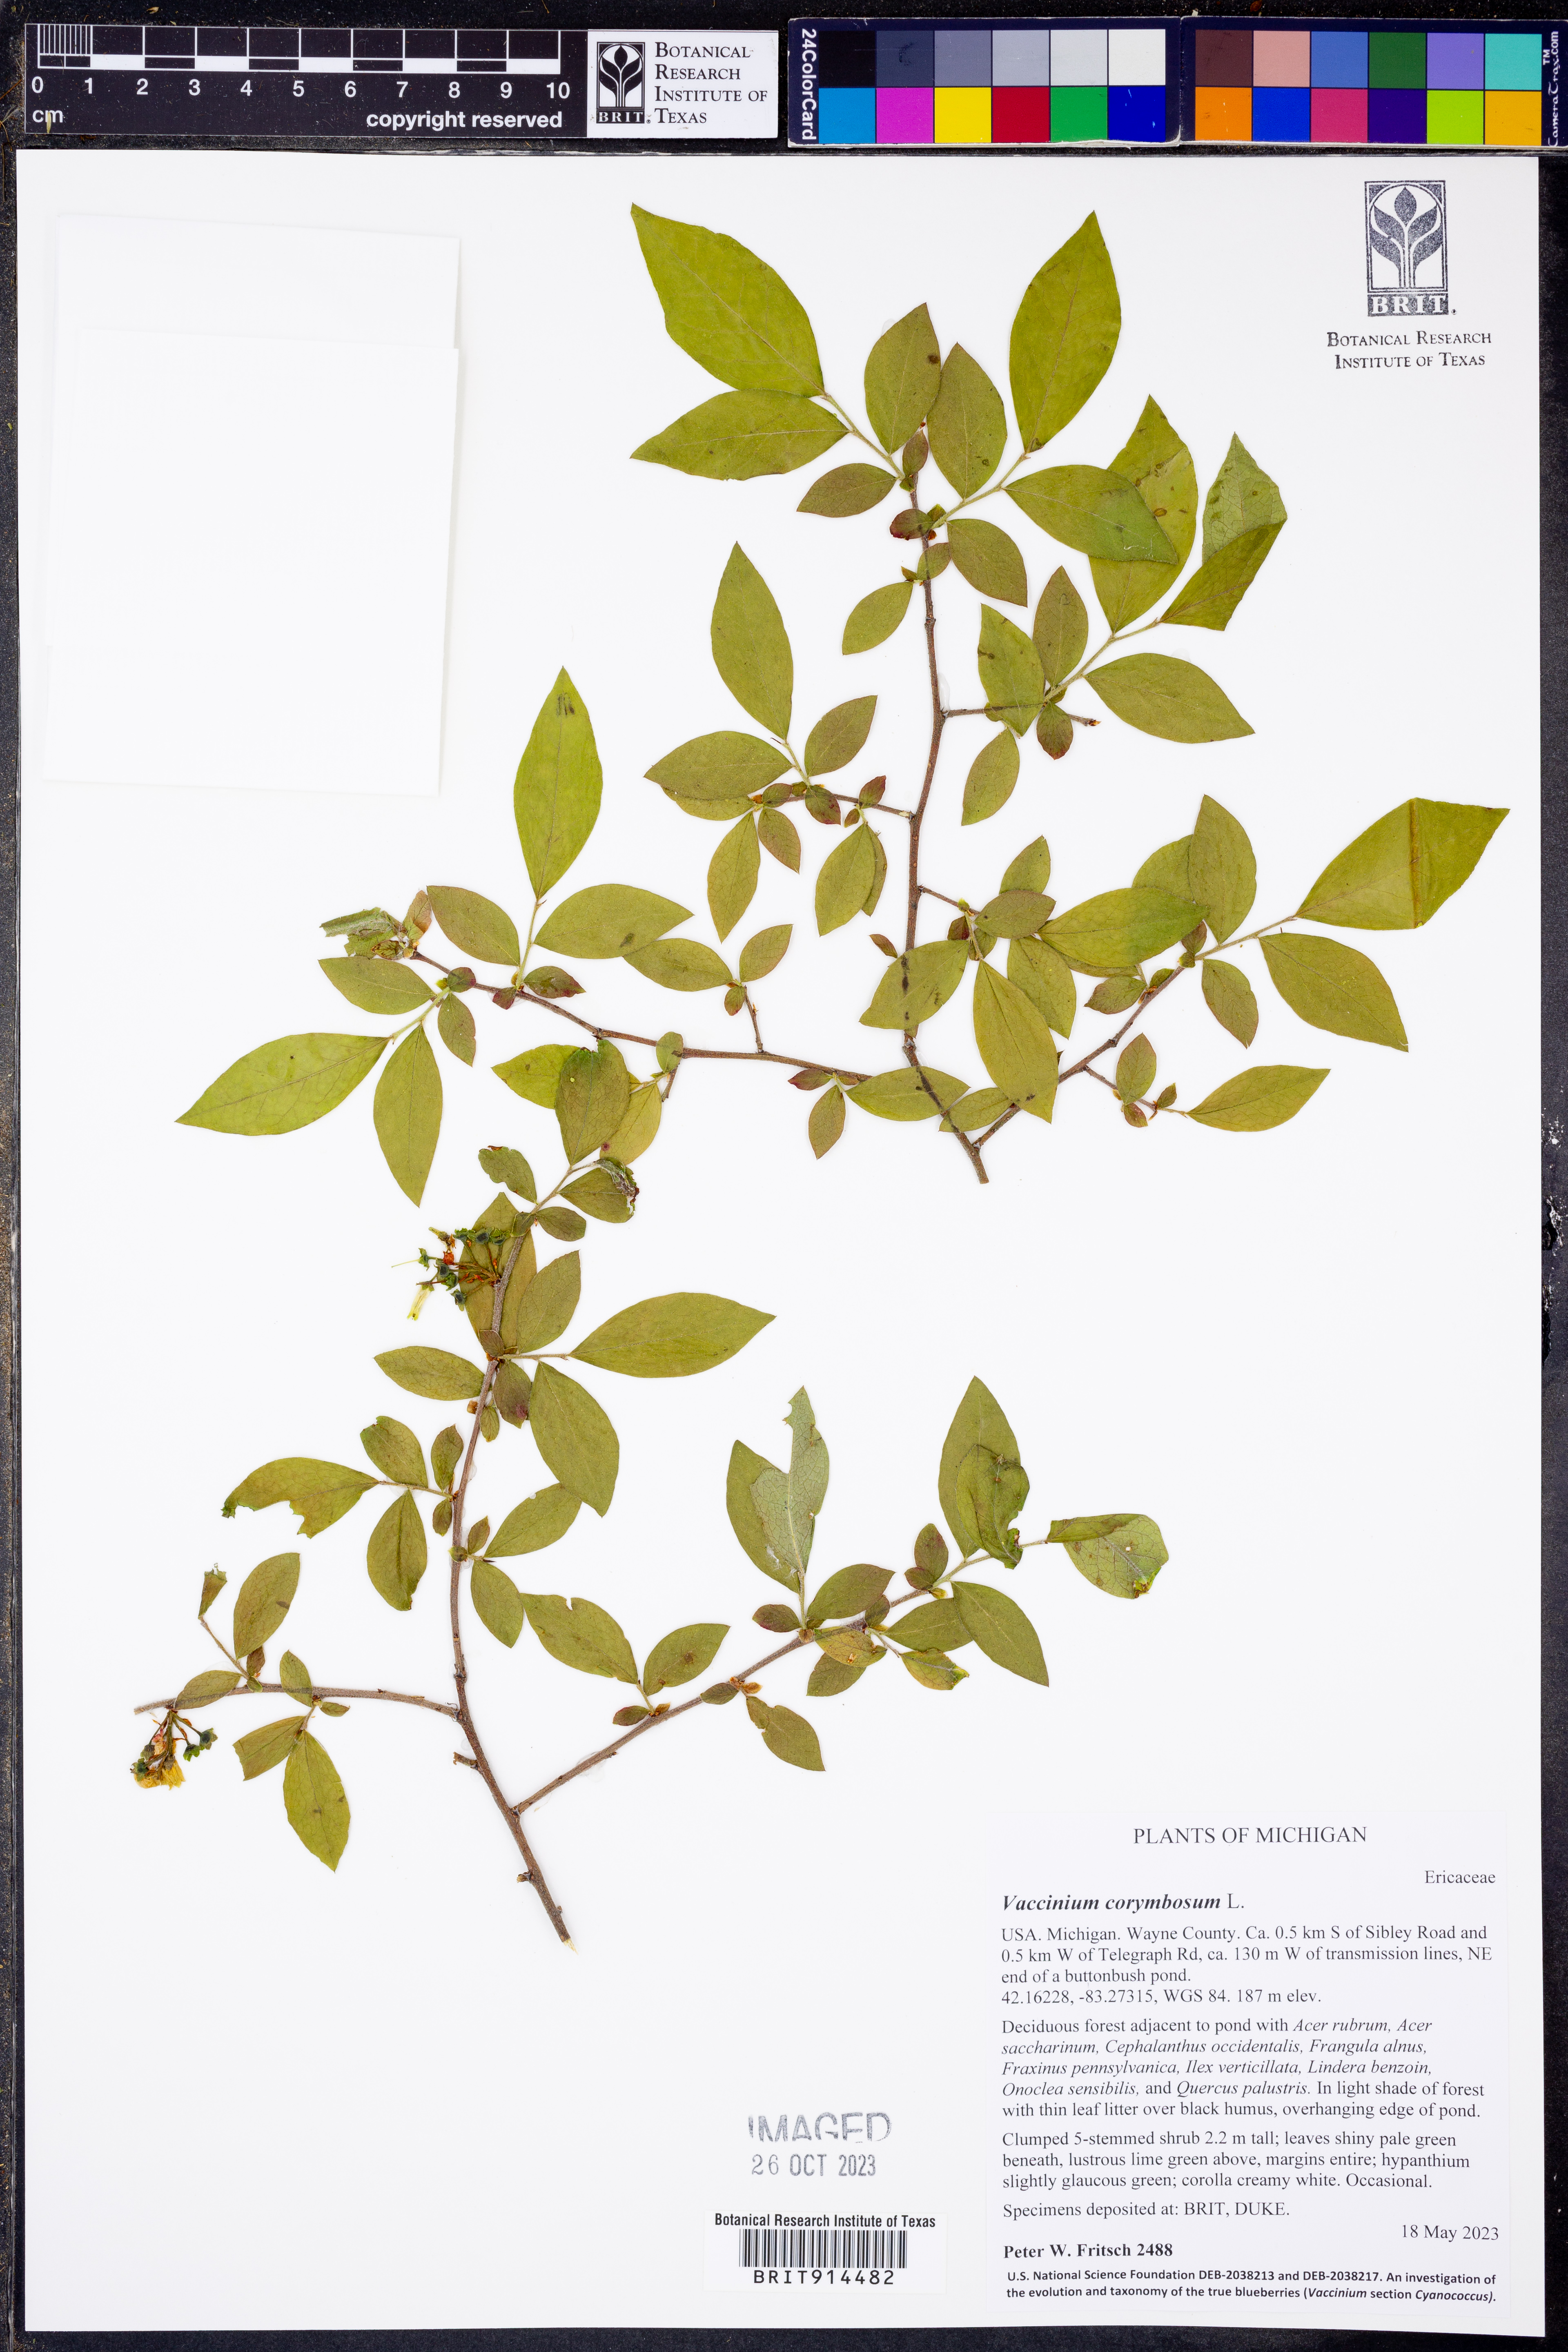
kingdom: Plantae
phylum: Tracheophyta
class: Magnoliopsida
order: Ericales
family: Ericaceae
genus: Vaccinium
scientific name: Vaccinium corymbosum
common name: Blueberry
